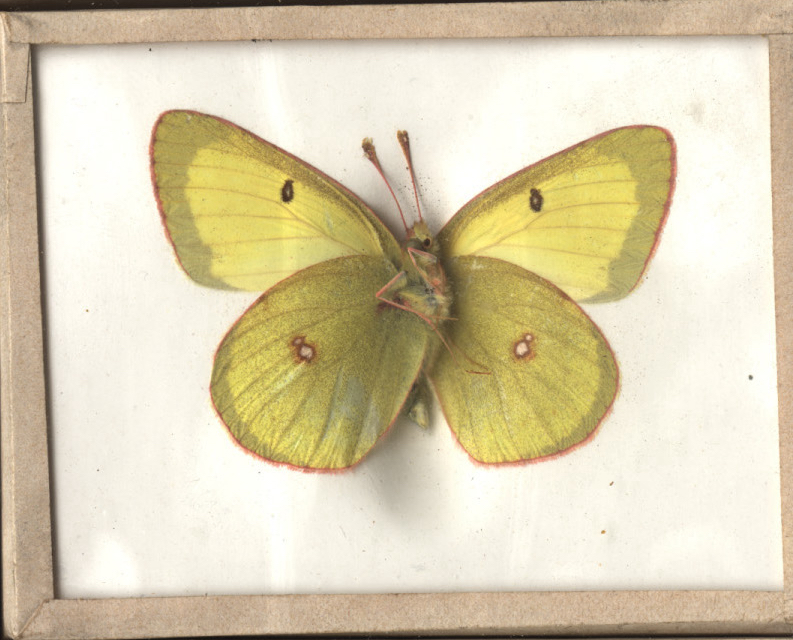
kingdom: Animalia
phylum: Arthropoda
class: Insecta
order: Lepidoptera
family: Pieridae
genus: Colias
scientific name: Colias philodice
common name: Clouded Sulphur
